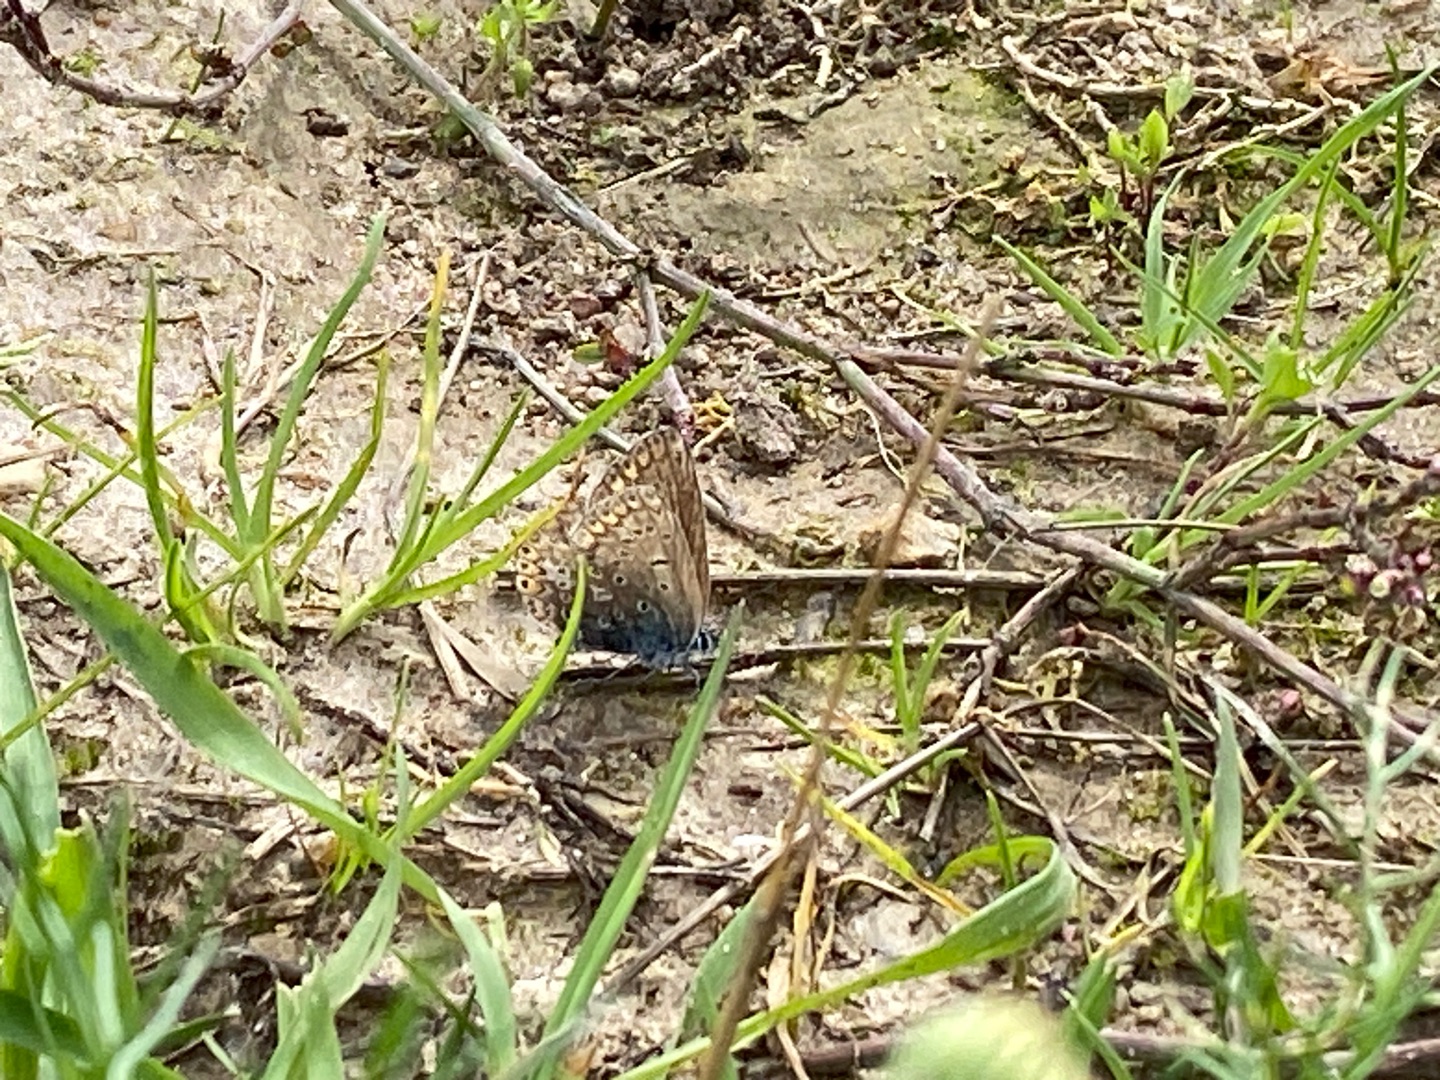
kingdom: Animalia
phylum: Arthropoda
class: Insecta
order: Lepidoptera
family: Lycaenidae
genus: Polyommatus
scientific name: Polyommatus icarus
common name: Almindelig blåfugl
